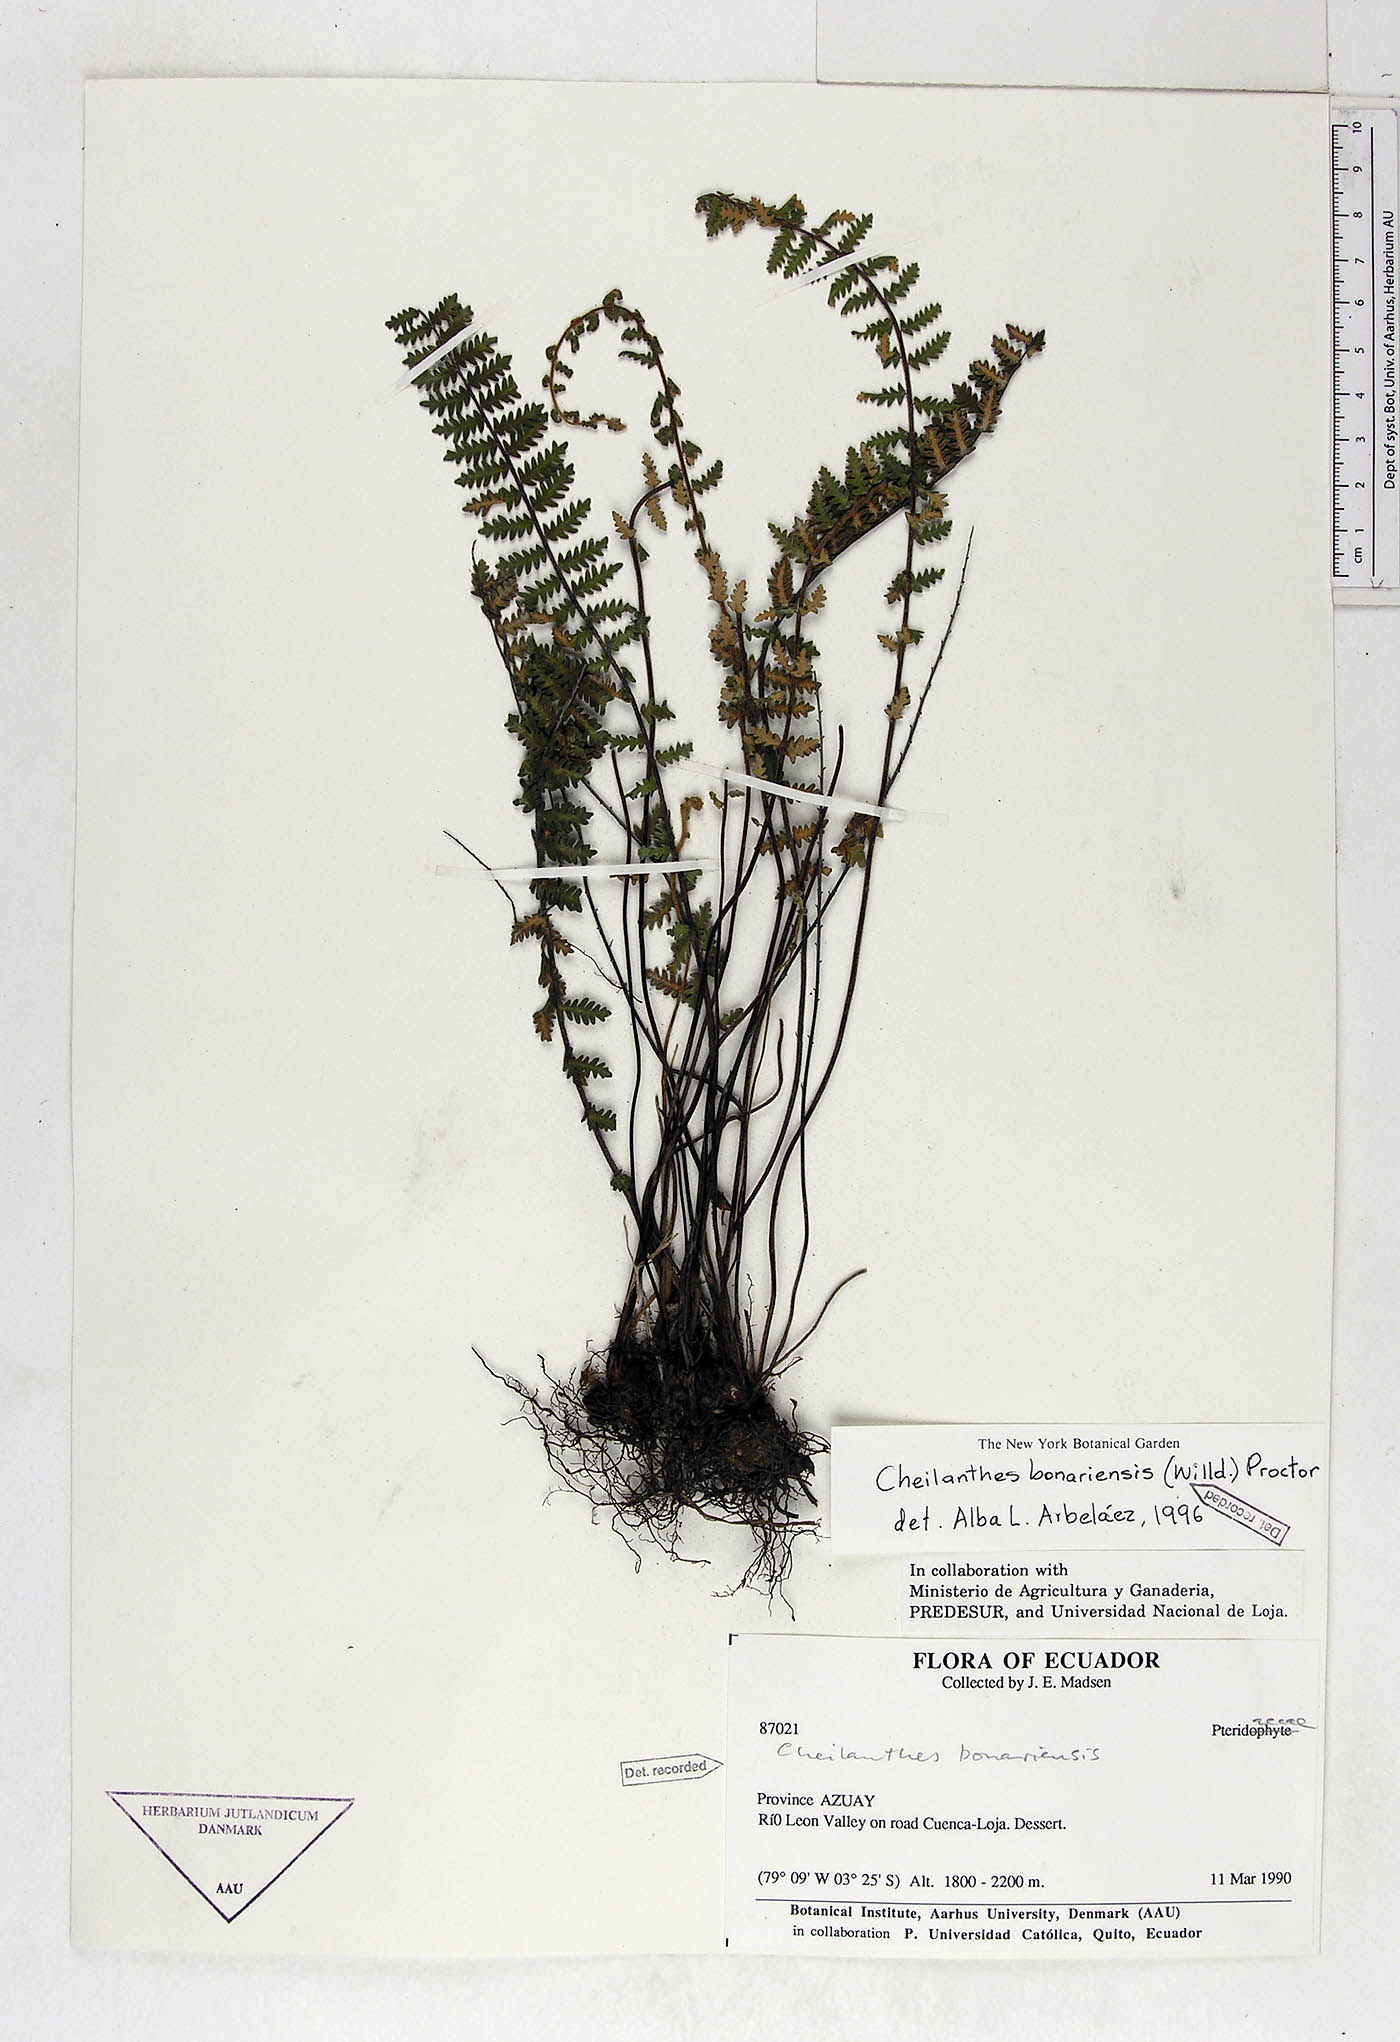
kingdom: Plantae
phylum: Tracheophyta
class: Polypodiopsida
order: Polypodiales
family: Pteridaceae
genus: Myriopteris
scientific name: Myriopteris aurea
